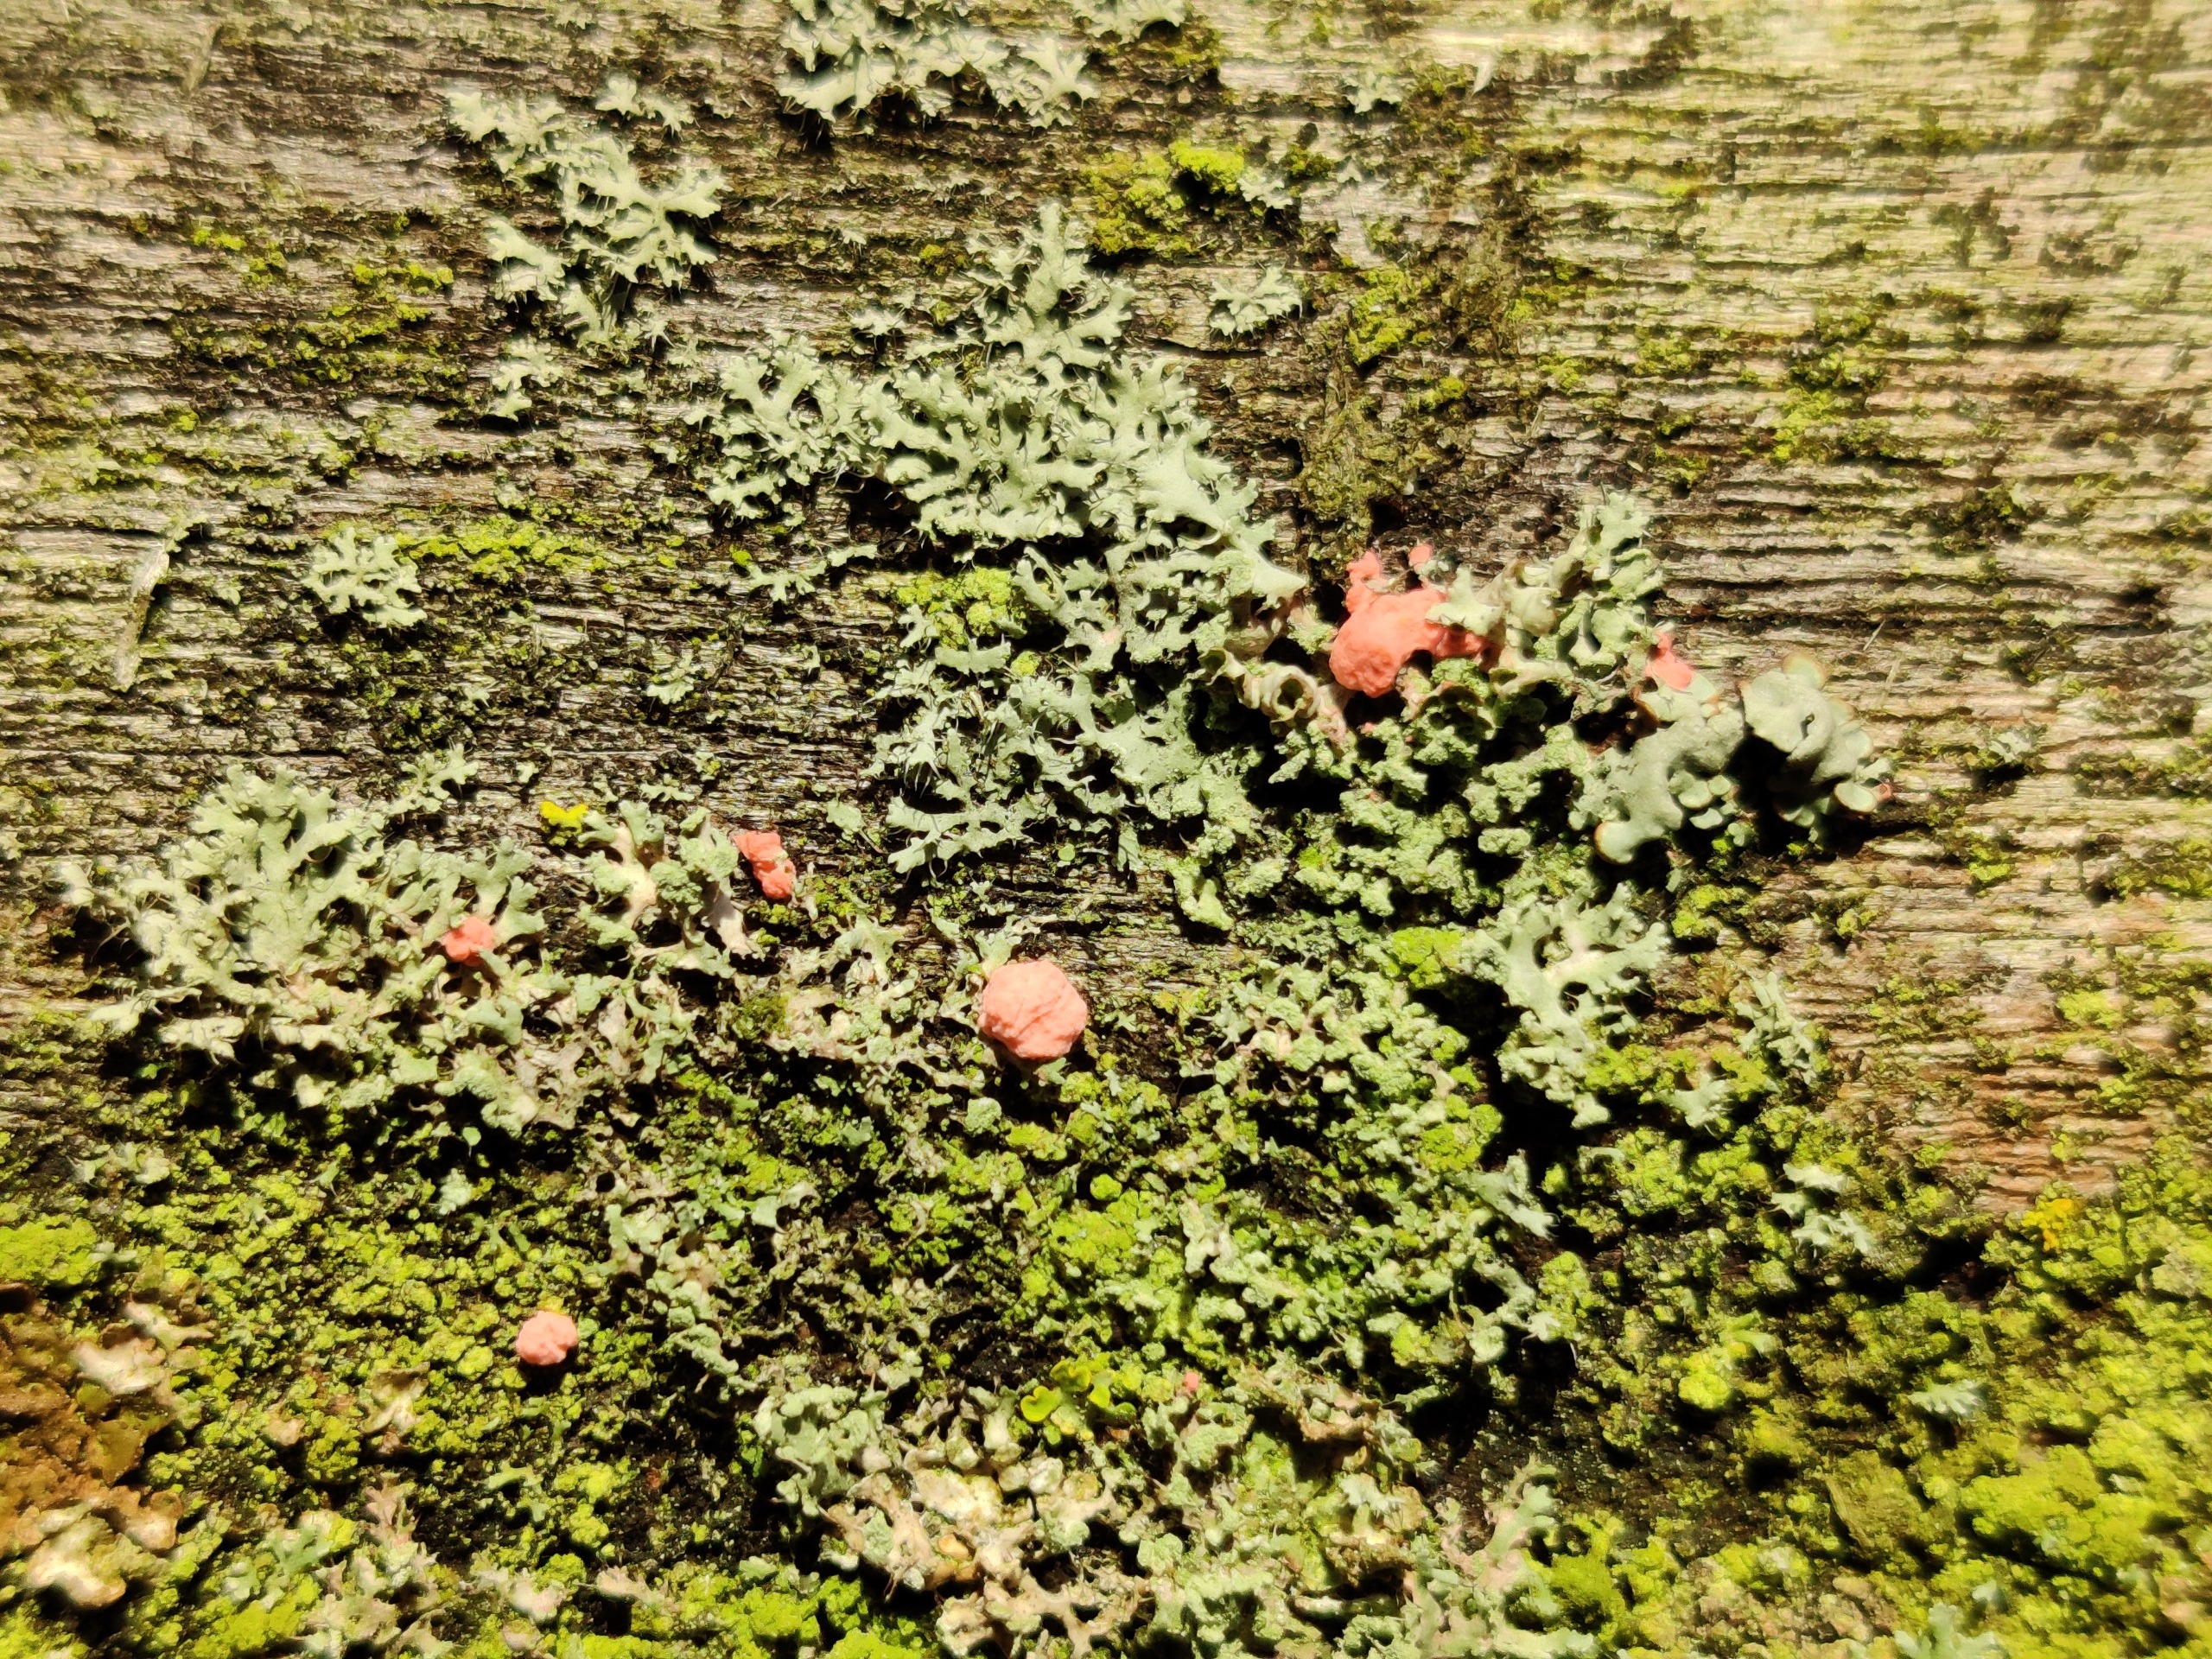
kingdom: Fungi
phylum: Ascomycota
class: Sordariomycetes
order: Hypocreales
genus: Illosporiopsis
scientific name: Illosporiopsis christiansenii
